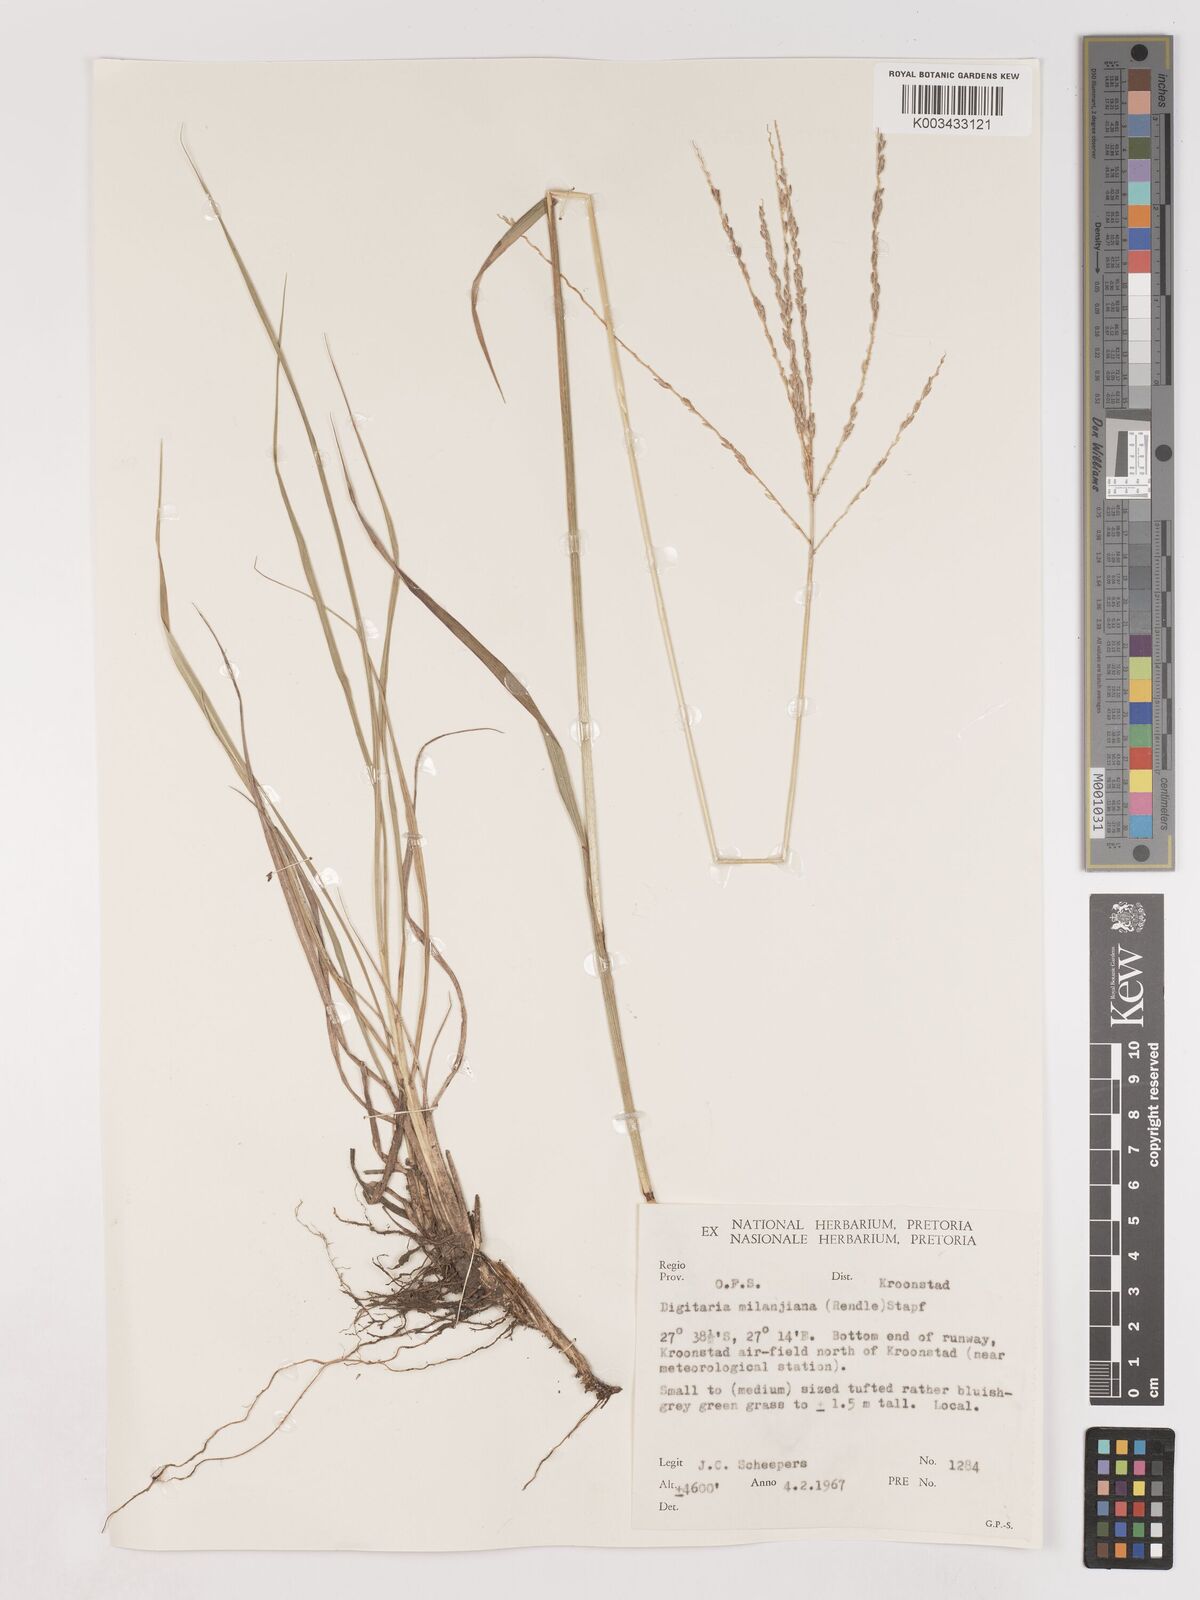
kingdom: Plantae
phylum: Tracheophyta
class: Liliopsida
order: Poales
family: Poaceae
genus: Digitaria
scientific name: Digitaria milanjiana
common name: Madagascar crabgrass
